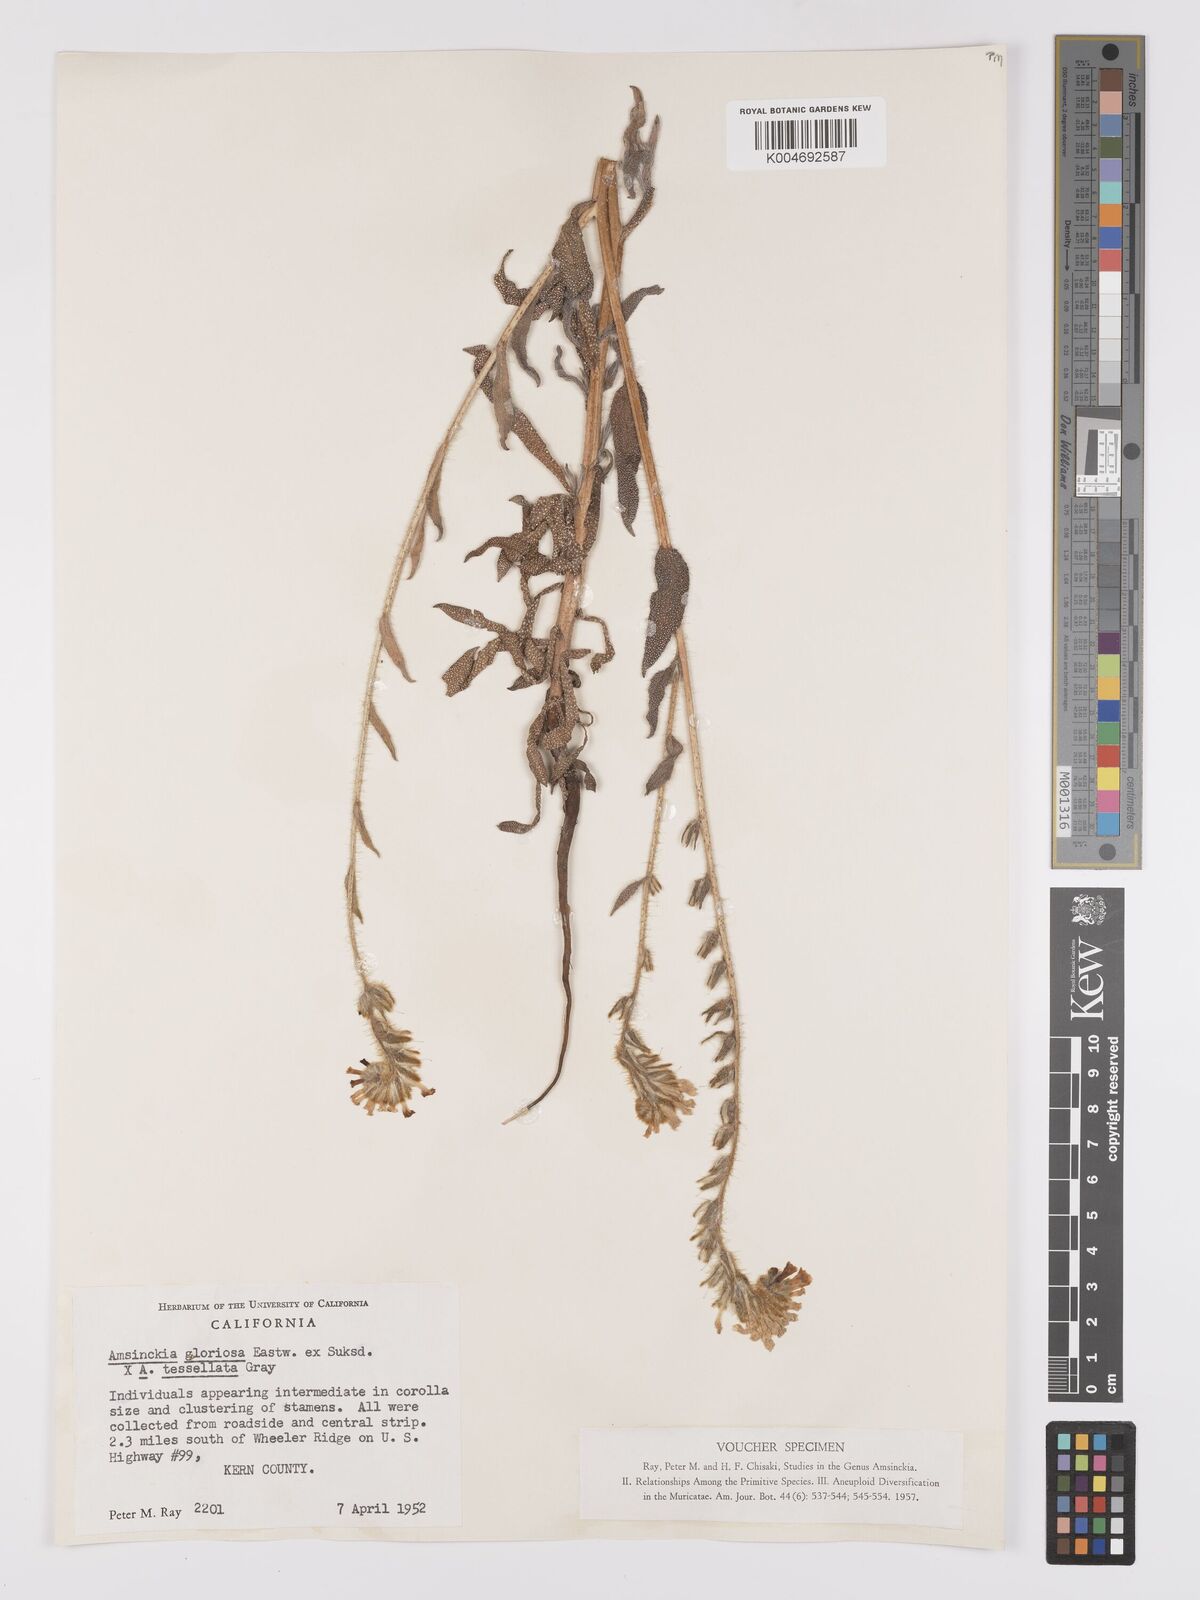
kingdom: Plantae
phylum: Tracheophyta
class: Magnoliopsida
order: Boraginales
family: Boraginaceae
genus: Amsinckia
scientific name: Amsinckia tessellata
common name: Tessellate fiddleneck
